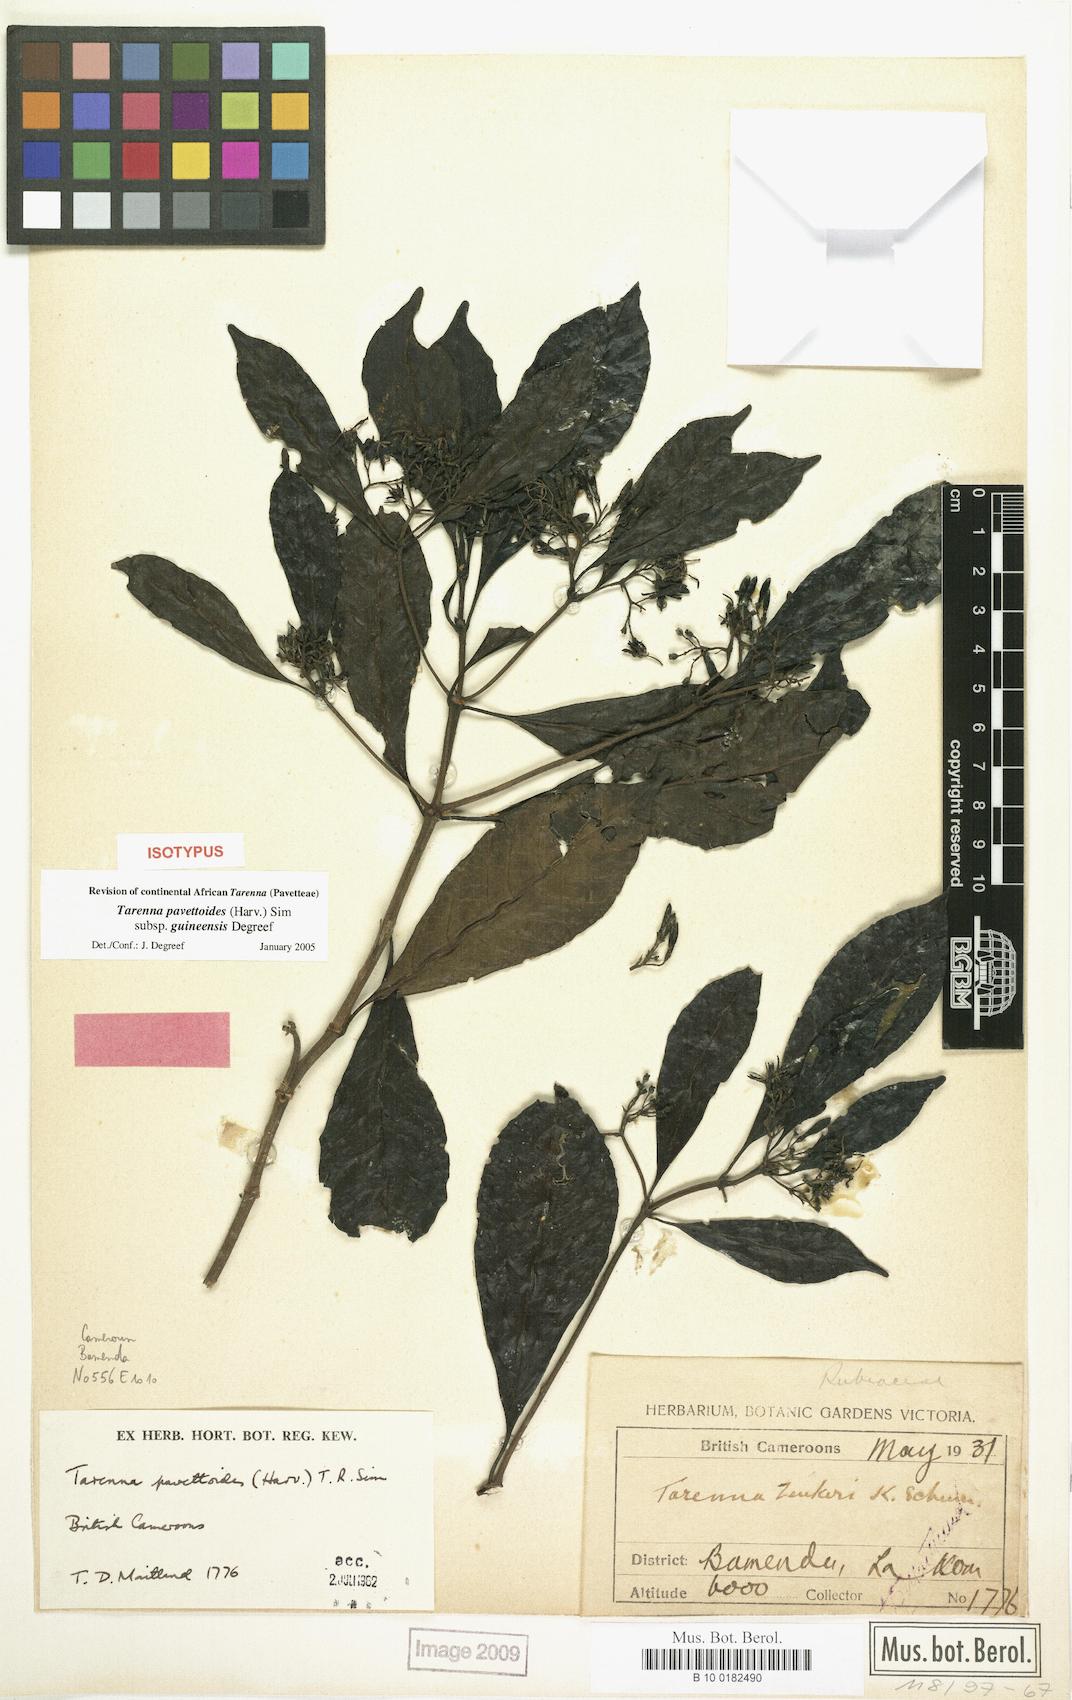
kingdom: Plantae
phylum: Tracheophyta
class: Magnoliopsida
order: Gentianales
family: Rubiaceae
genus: Tarenna
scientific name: Tarenna pavettoides
